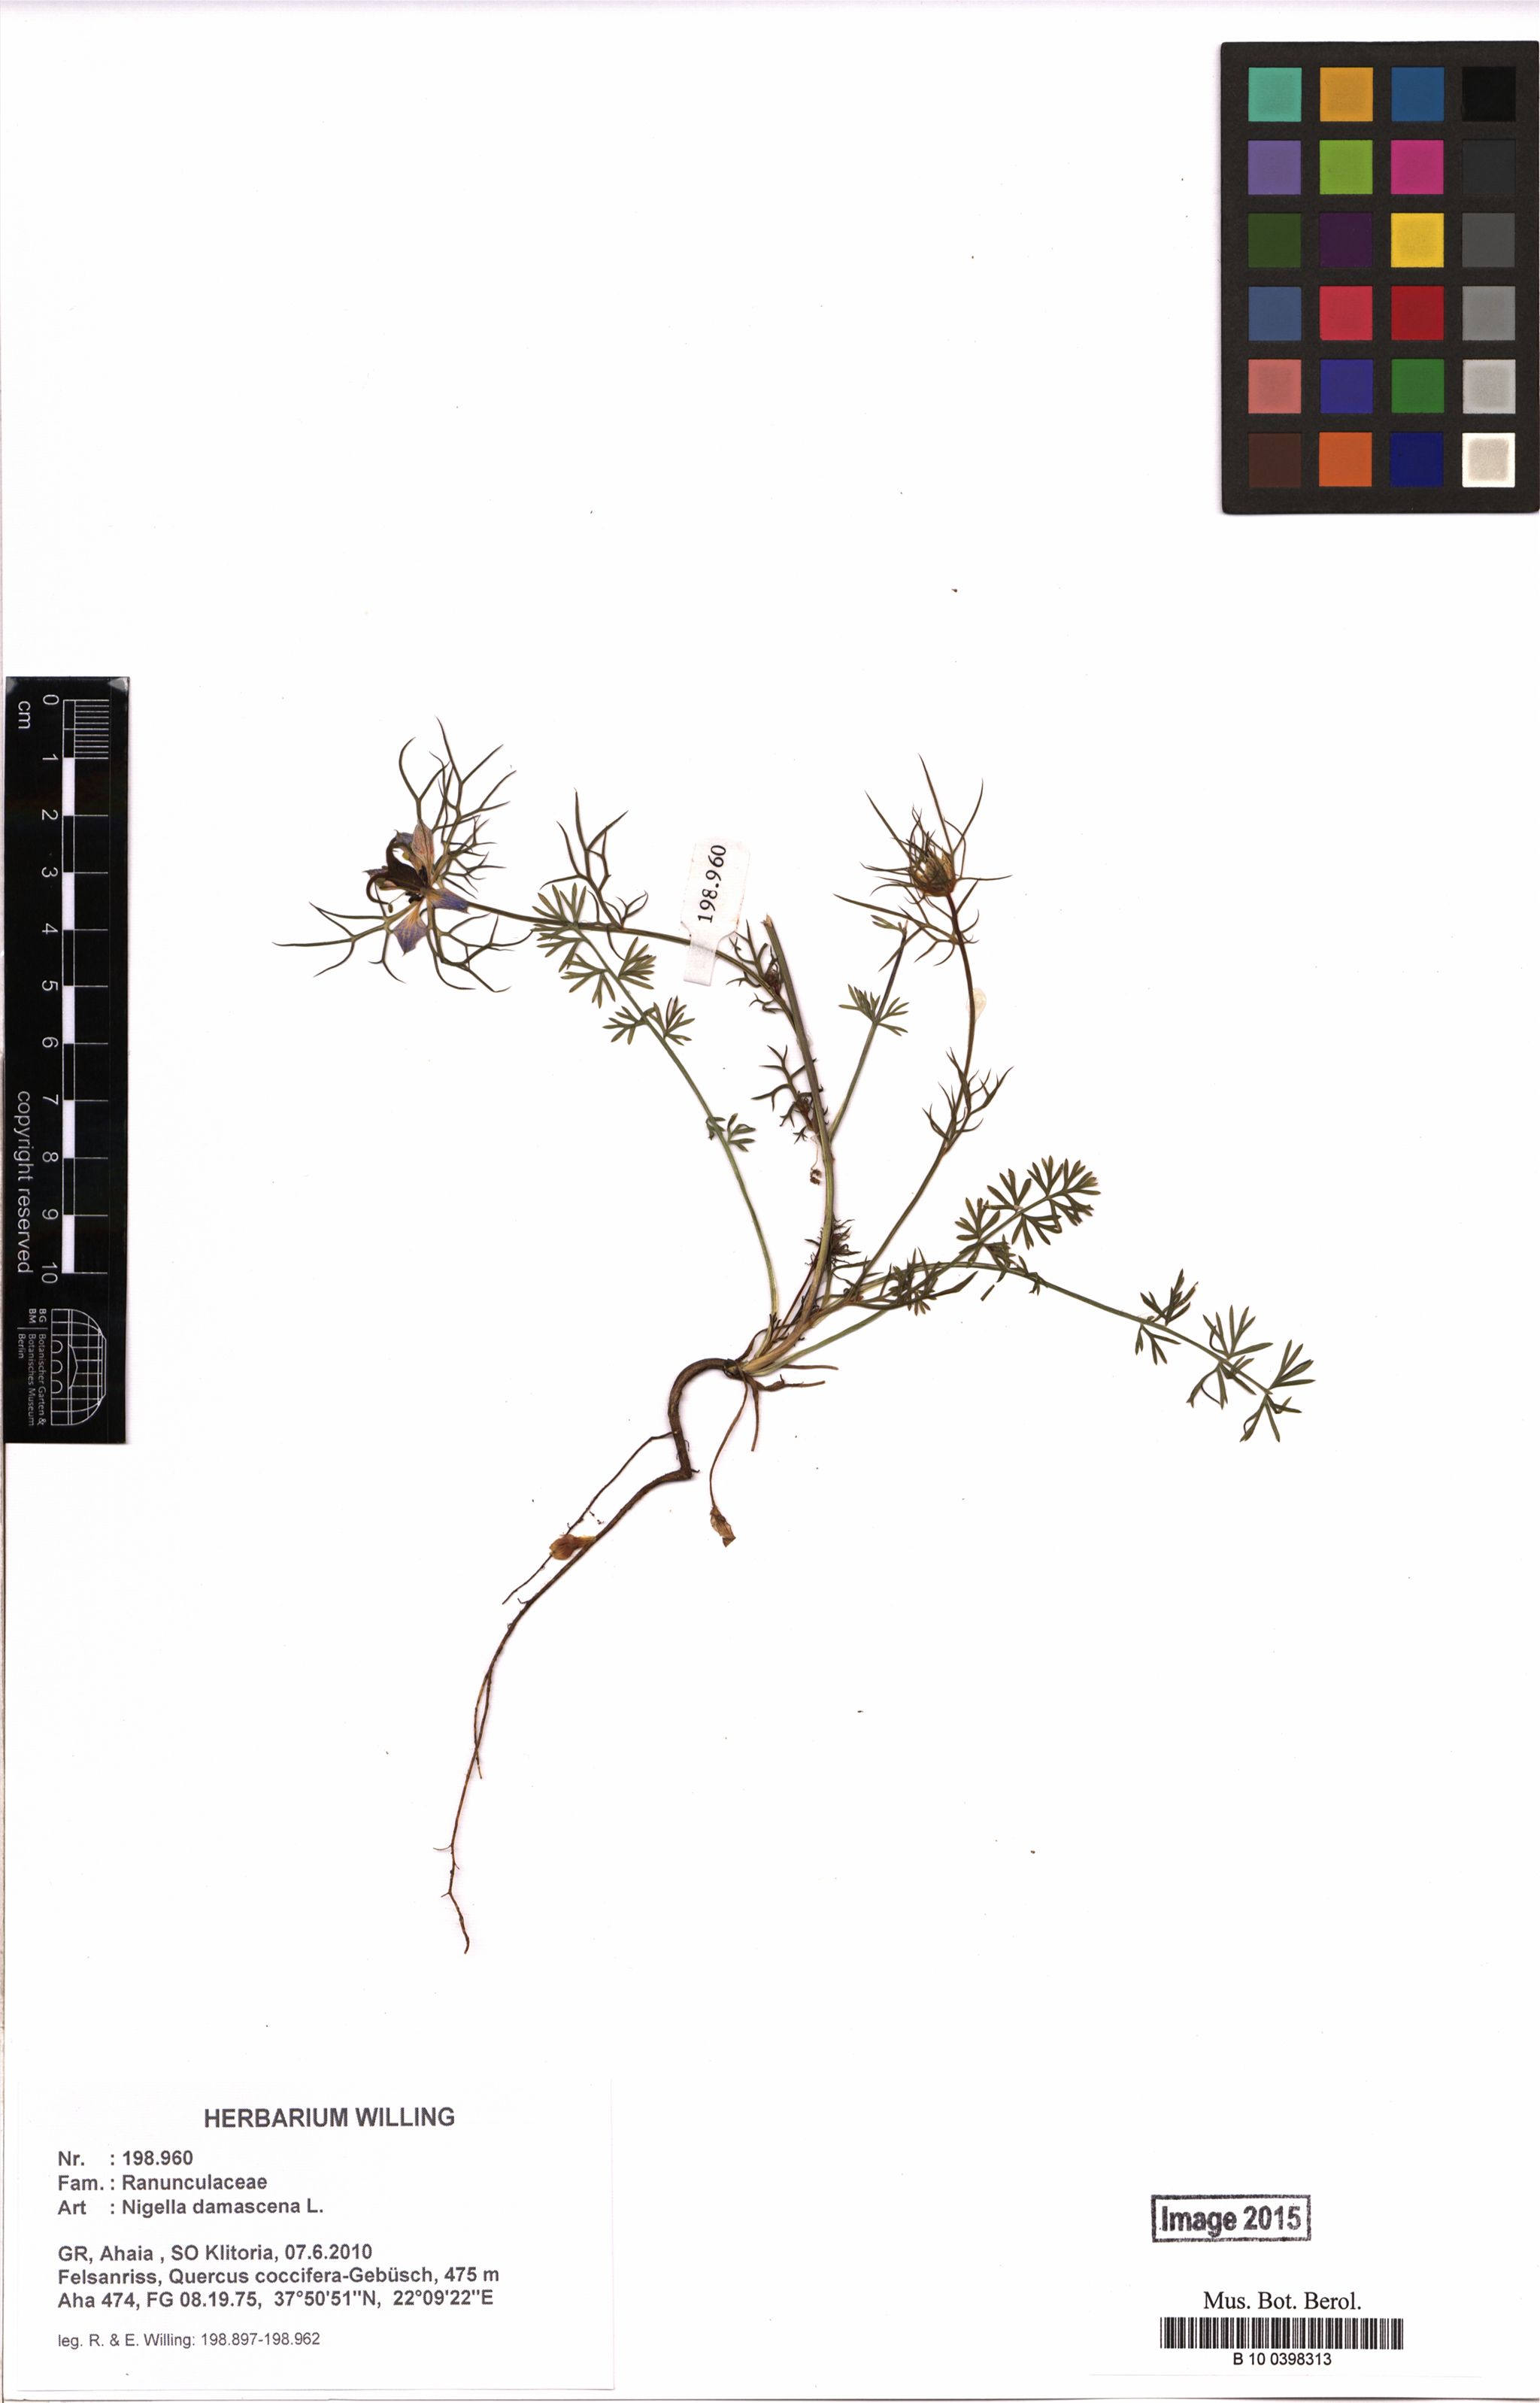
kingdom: Plantae
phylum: Tracheophyta
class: Magnoliopsida
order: Ranunculales
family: Ranunculaceae
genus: Nigella
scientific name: Nigella damascena
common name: Love-in-a-mist
